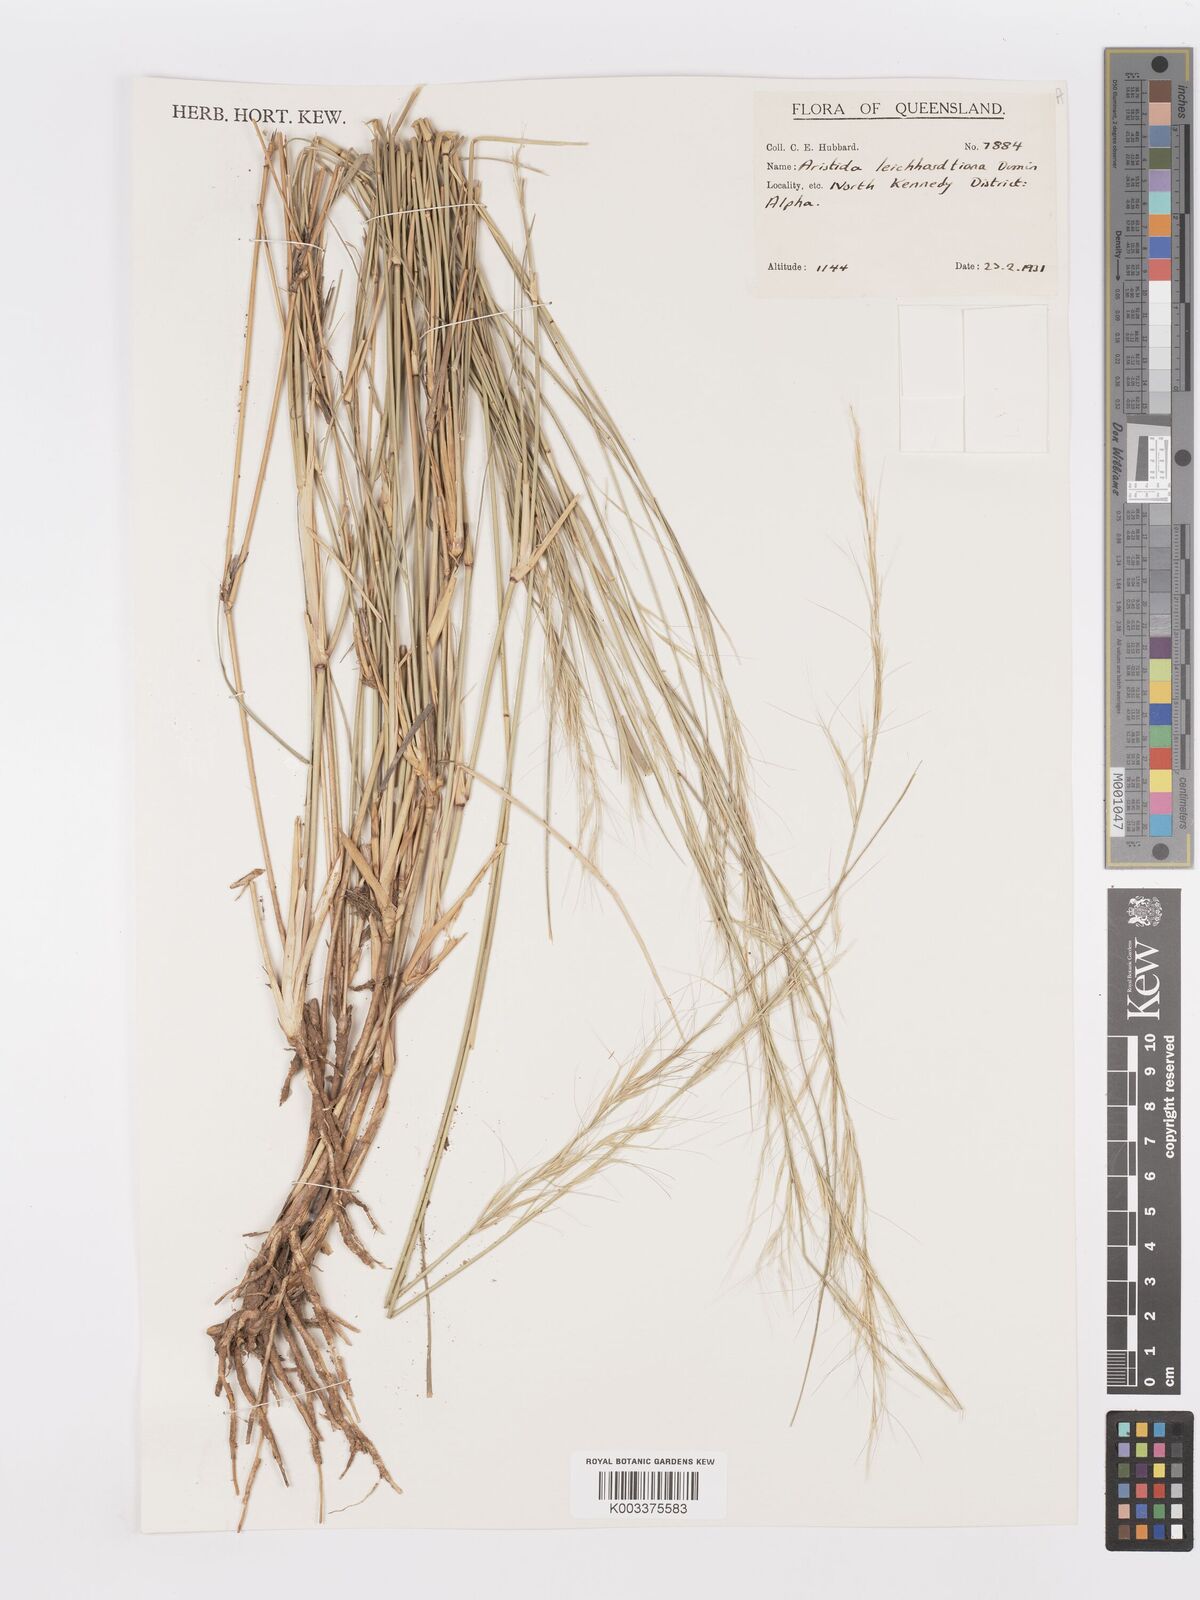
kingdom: Plantae
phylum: Tracheophyta
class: Liliopsida
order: Poales
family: Poaceae
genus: Aristida
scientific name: Aristida leichhardtiana
